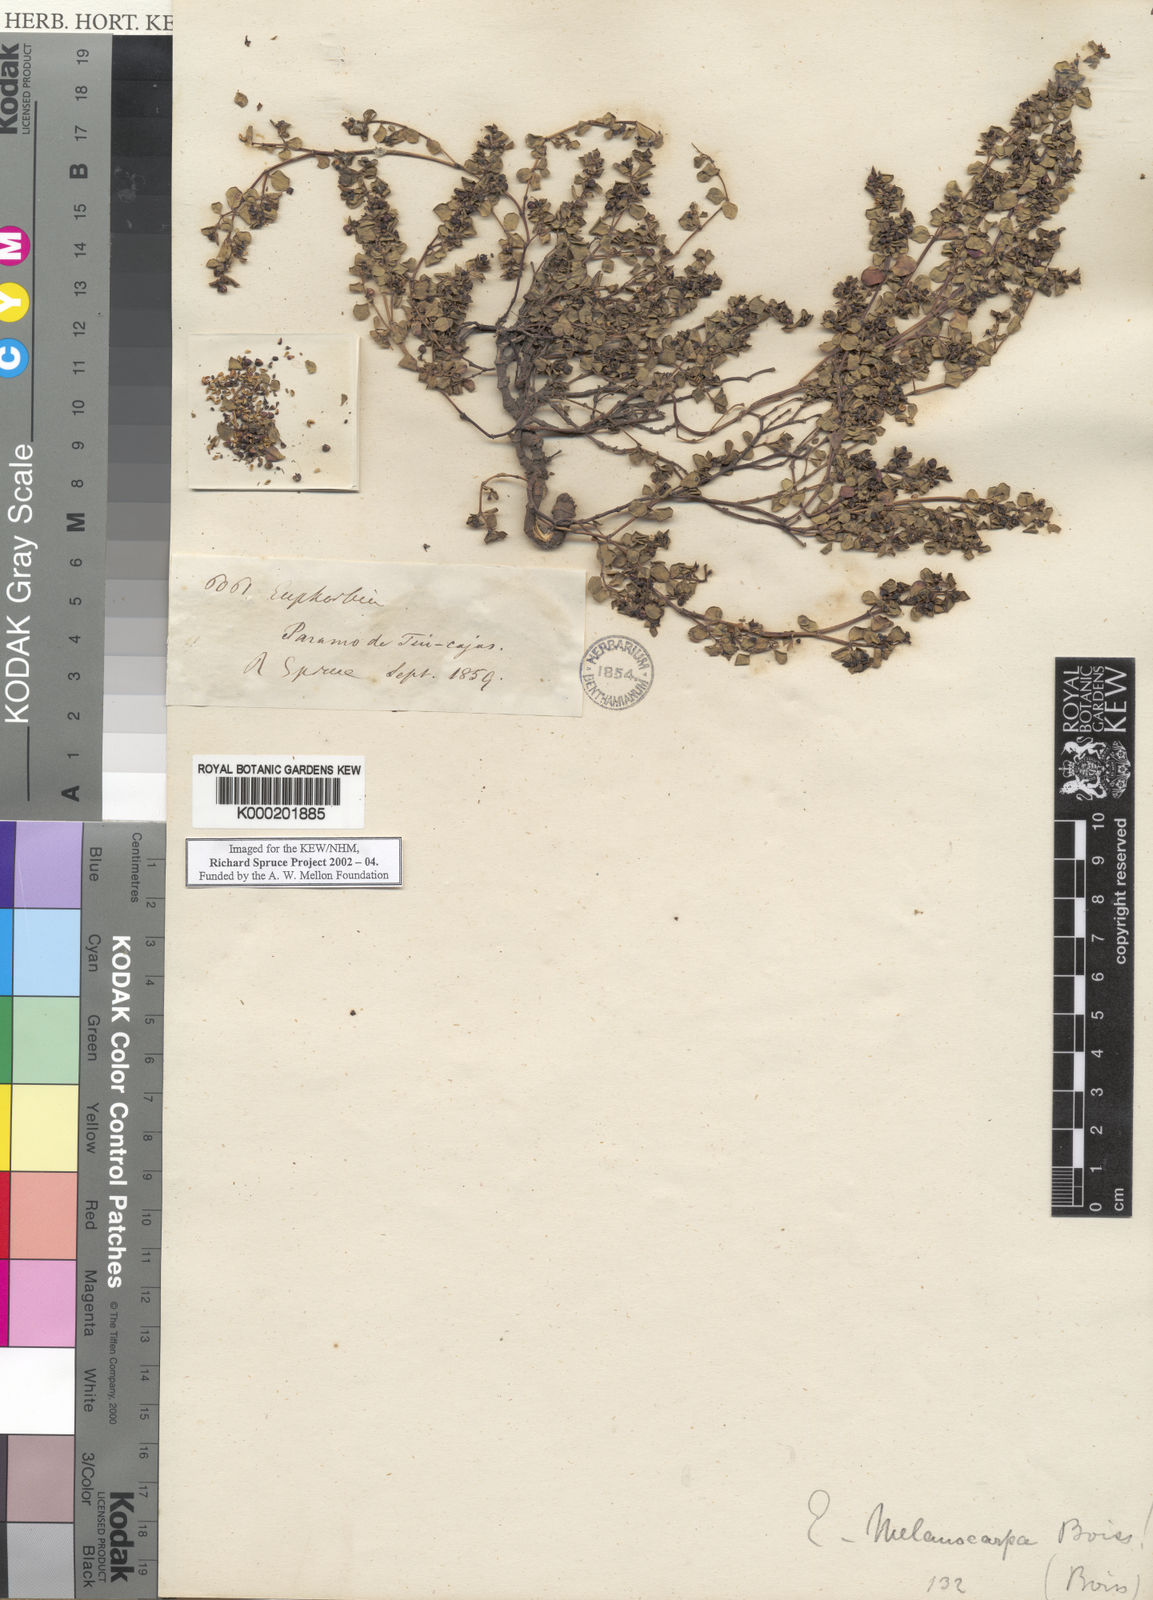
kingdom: Plantae
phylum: Tracheophyta
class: Magnoliopsida
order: Malpighiales
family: Euphorbiaceae
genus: Euphorbia
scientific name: Euphorbia melanocarpa
